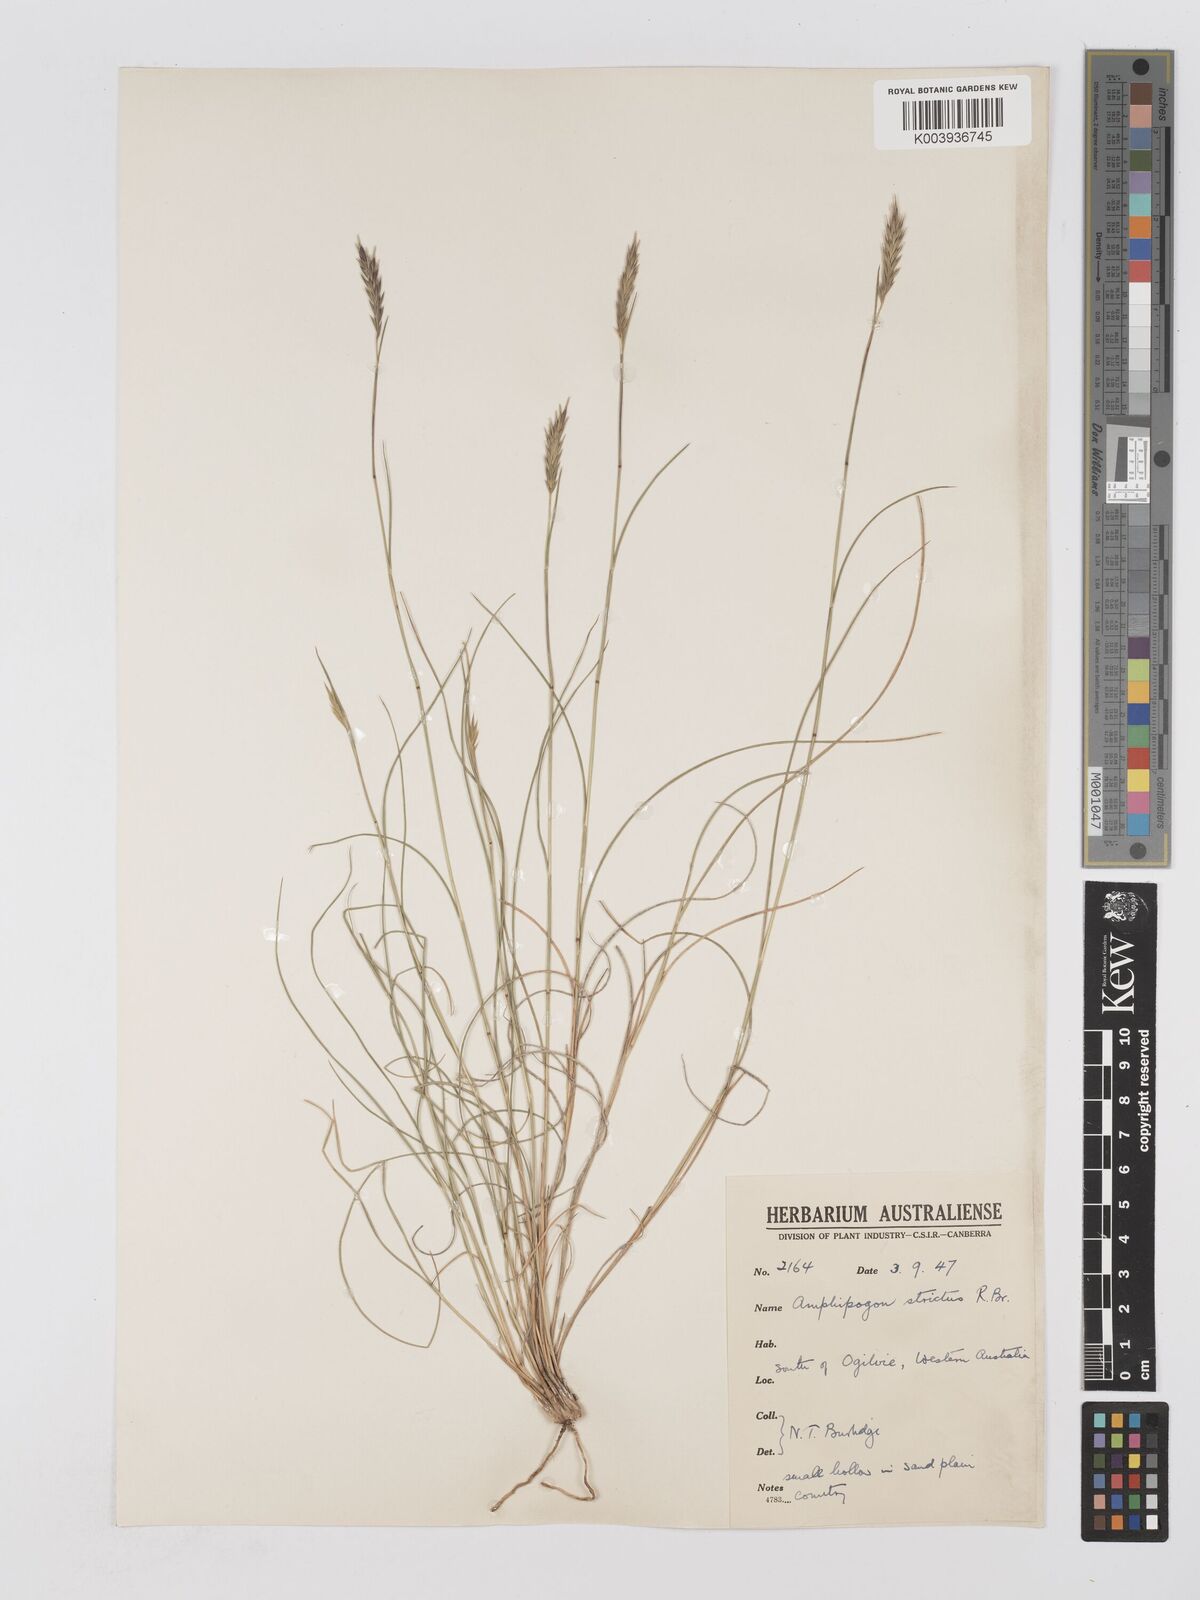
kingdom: Plantae
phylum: Tracheophyta
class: Liliopsida
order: Poales
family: Poaceae
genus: Amphipogon
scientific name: Amphipogon strictus
